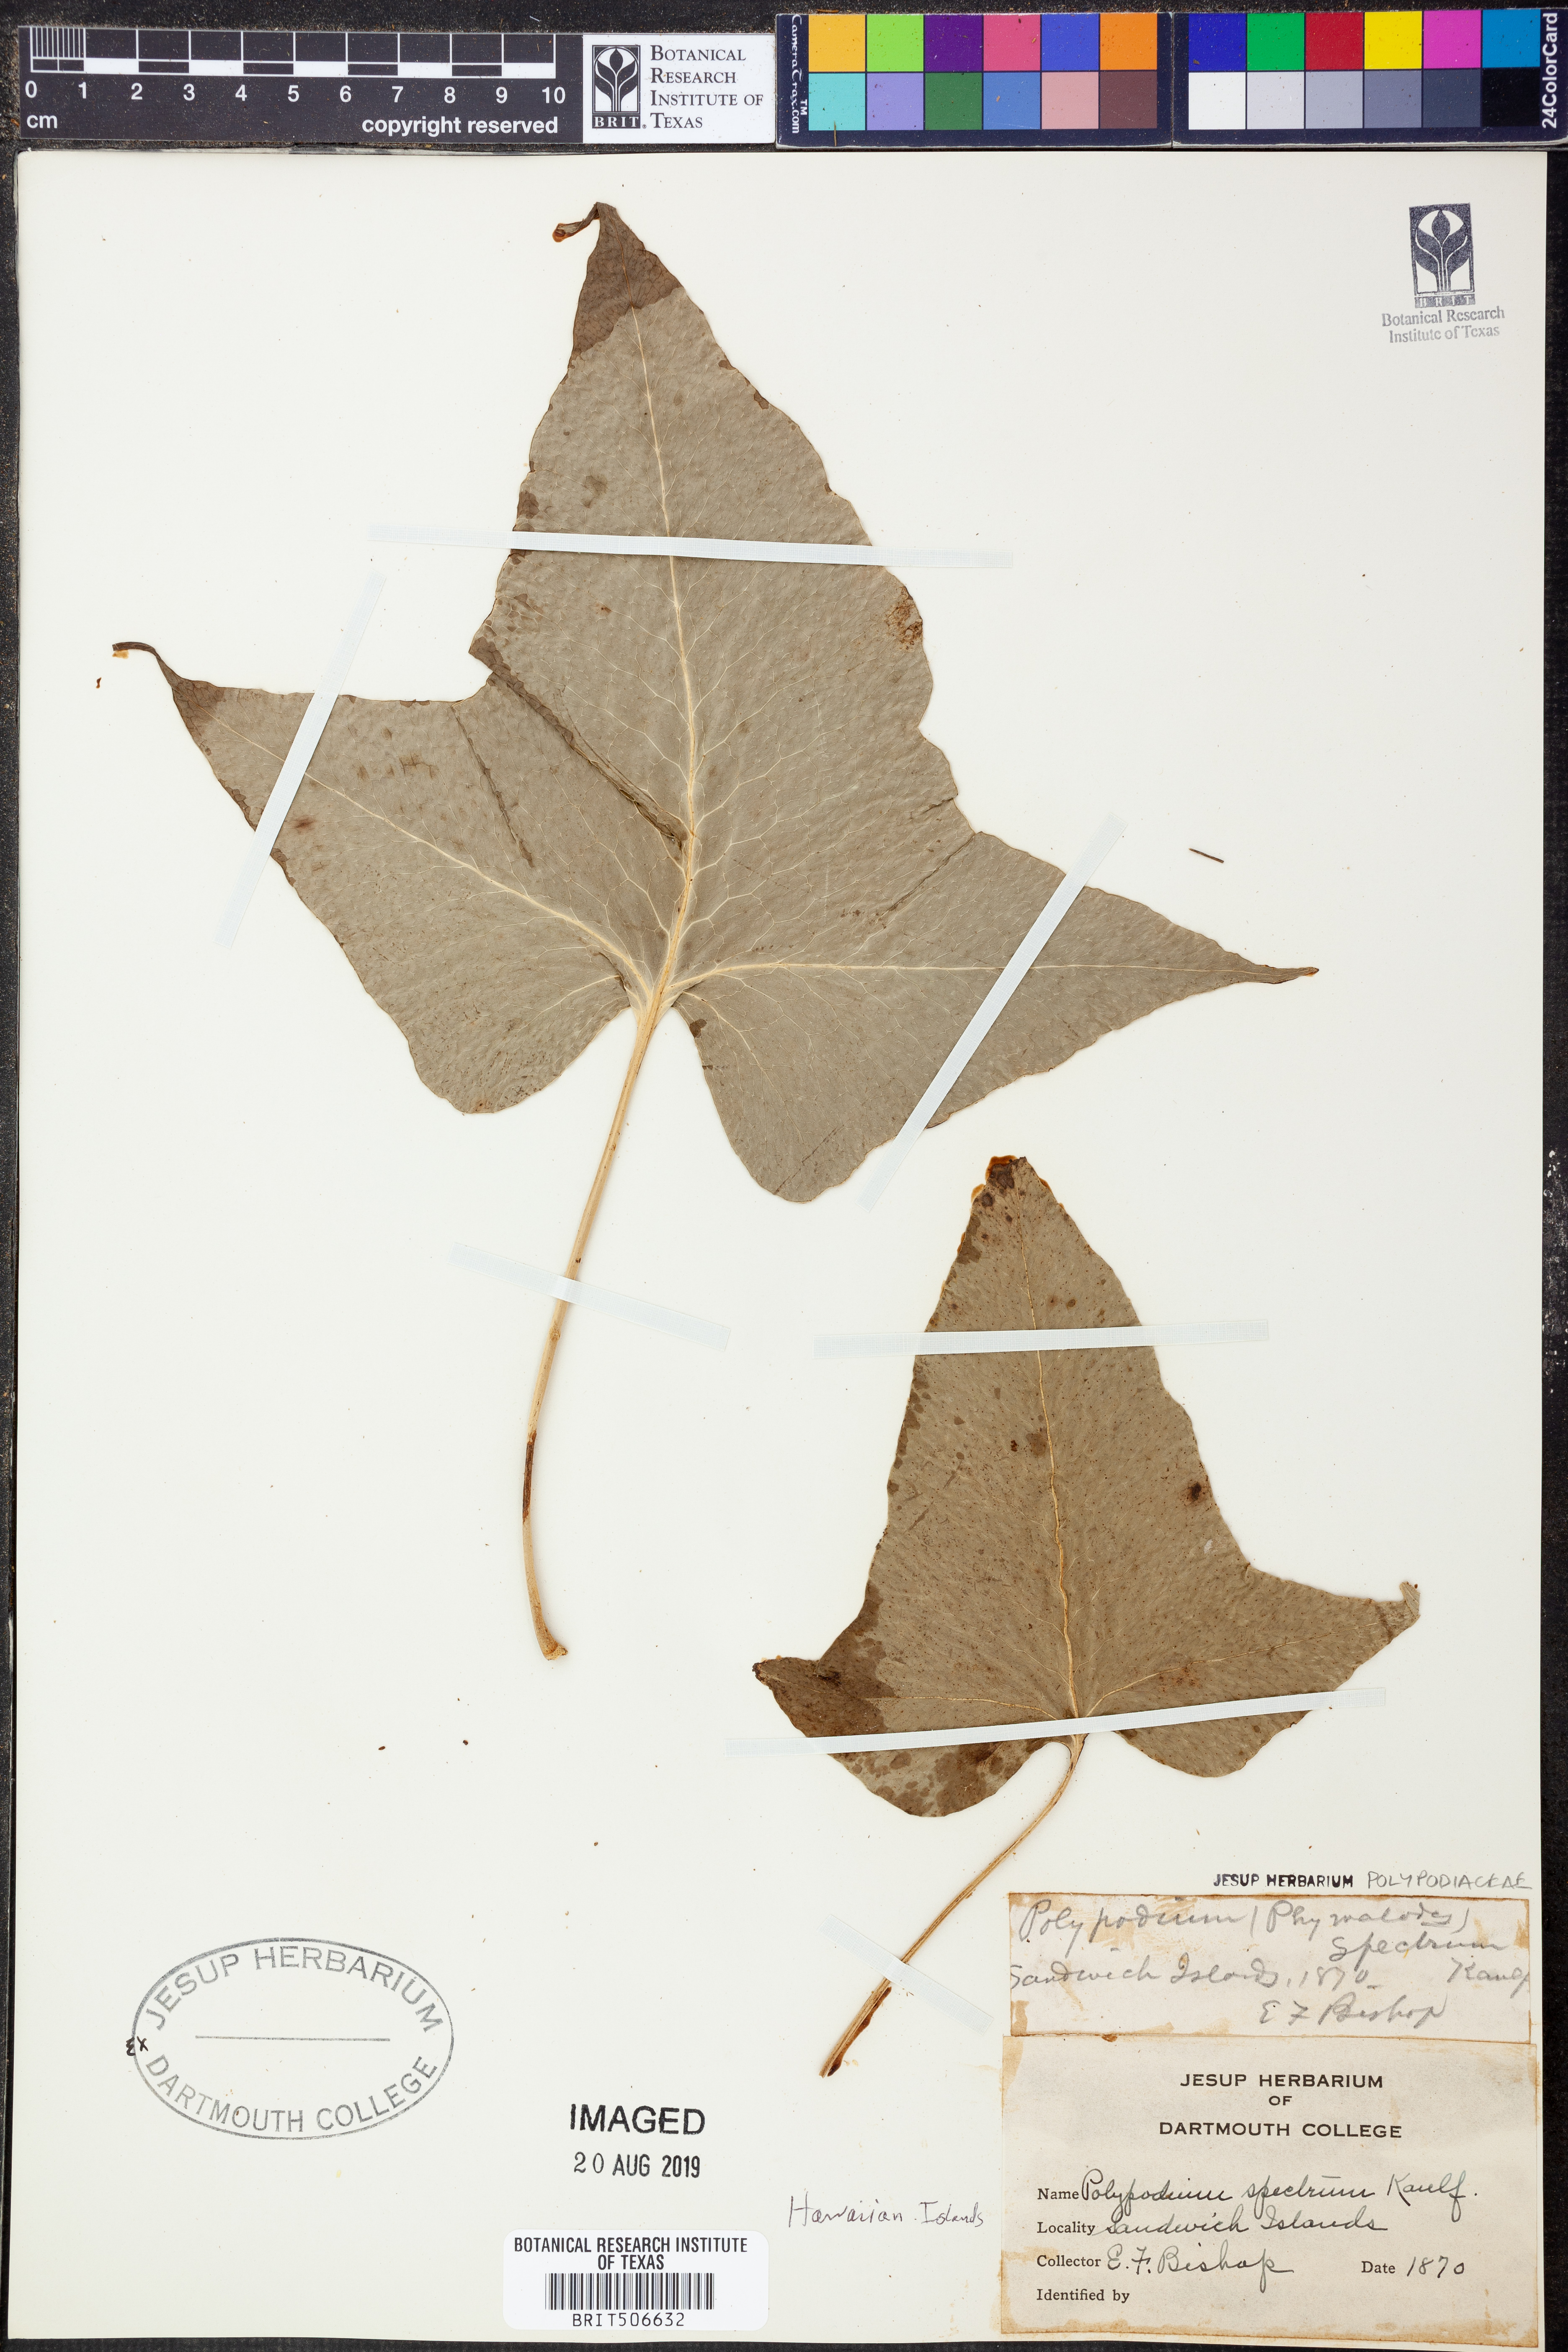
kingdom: Plantae
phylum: Tracheophyta
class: Polypodiopsida
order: Polypodiales
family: Polypodiaceae
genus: Microsorum
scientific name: Microsorum spectrum
